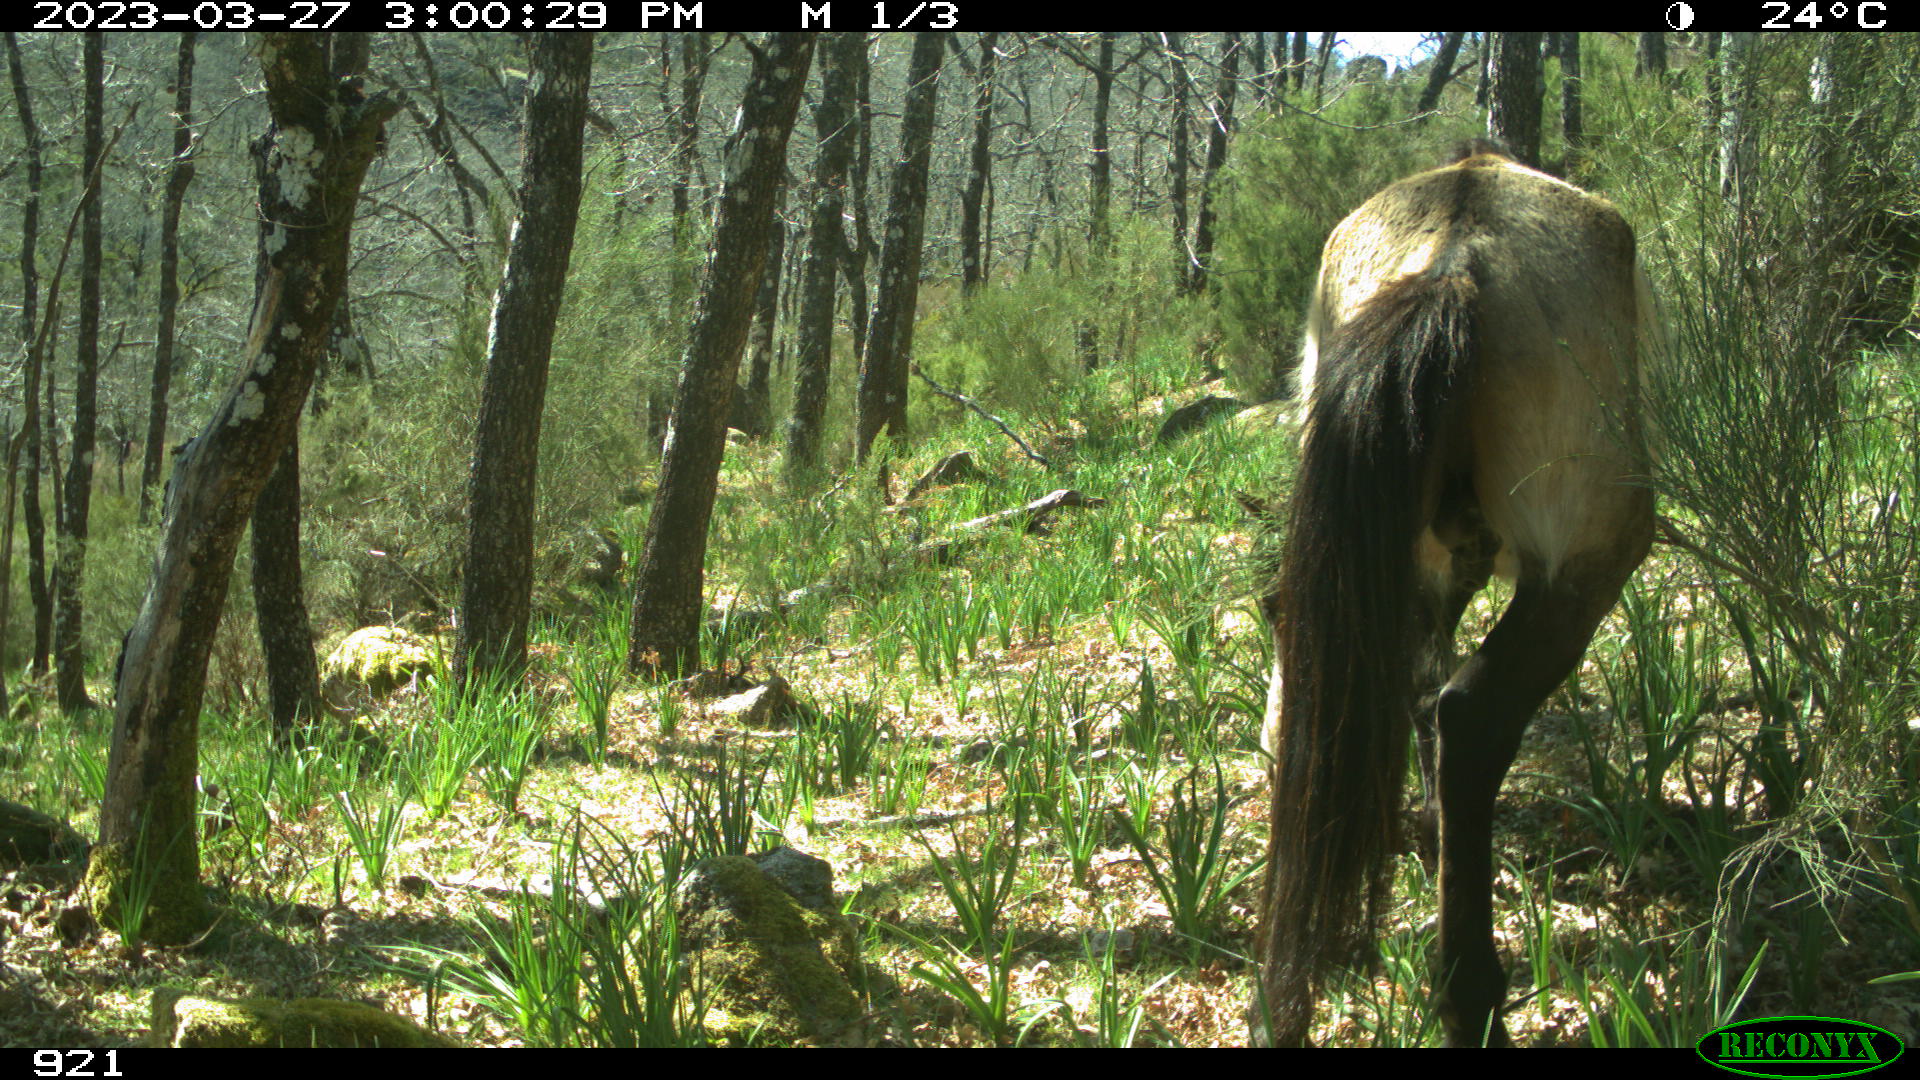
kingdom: Animalia
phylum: Chordata
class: Mammalia
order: Perissodactyla
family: Equidae
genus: Equus
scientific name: Equus caballus
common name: Horse
